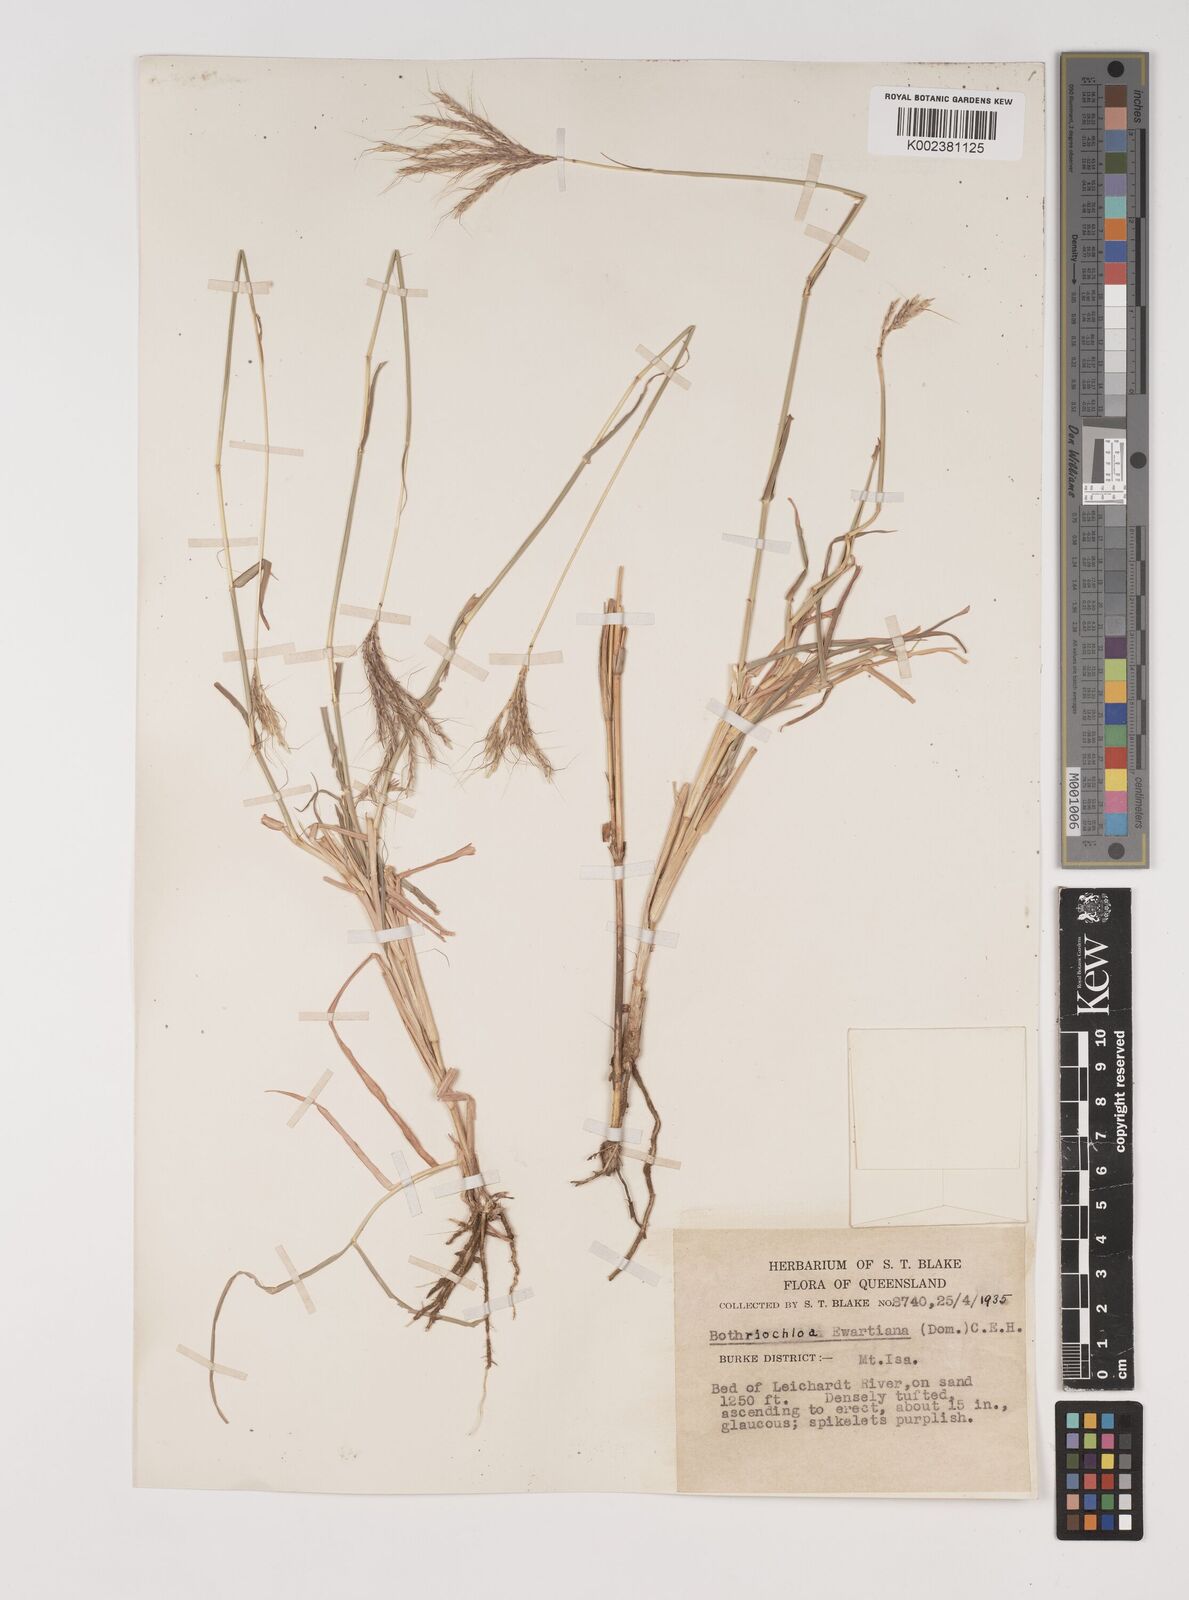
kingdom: Plantae
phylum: Tracheophyta
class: Liliopsida
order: Poales
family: Poaceae
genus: Bothriochloa
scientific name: Bothriochloa ewartiana
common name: Desert-bluegrass
